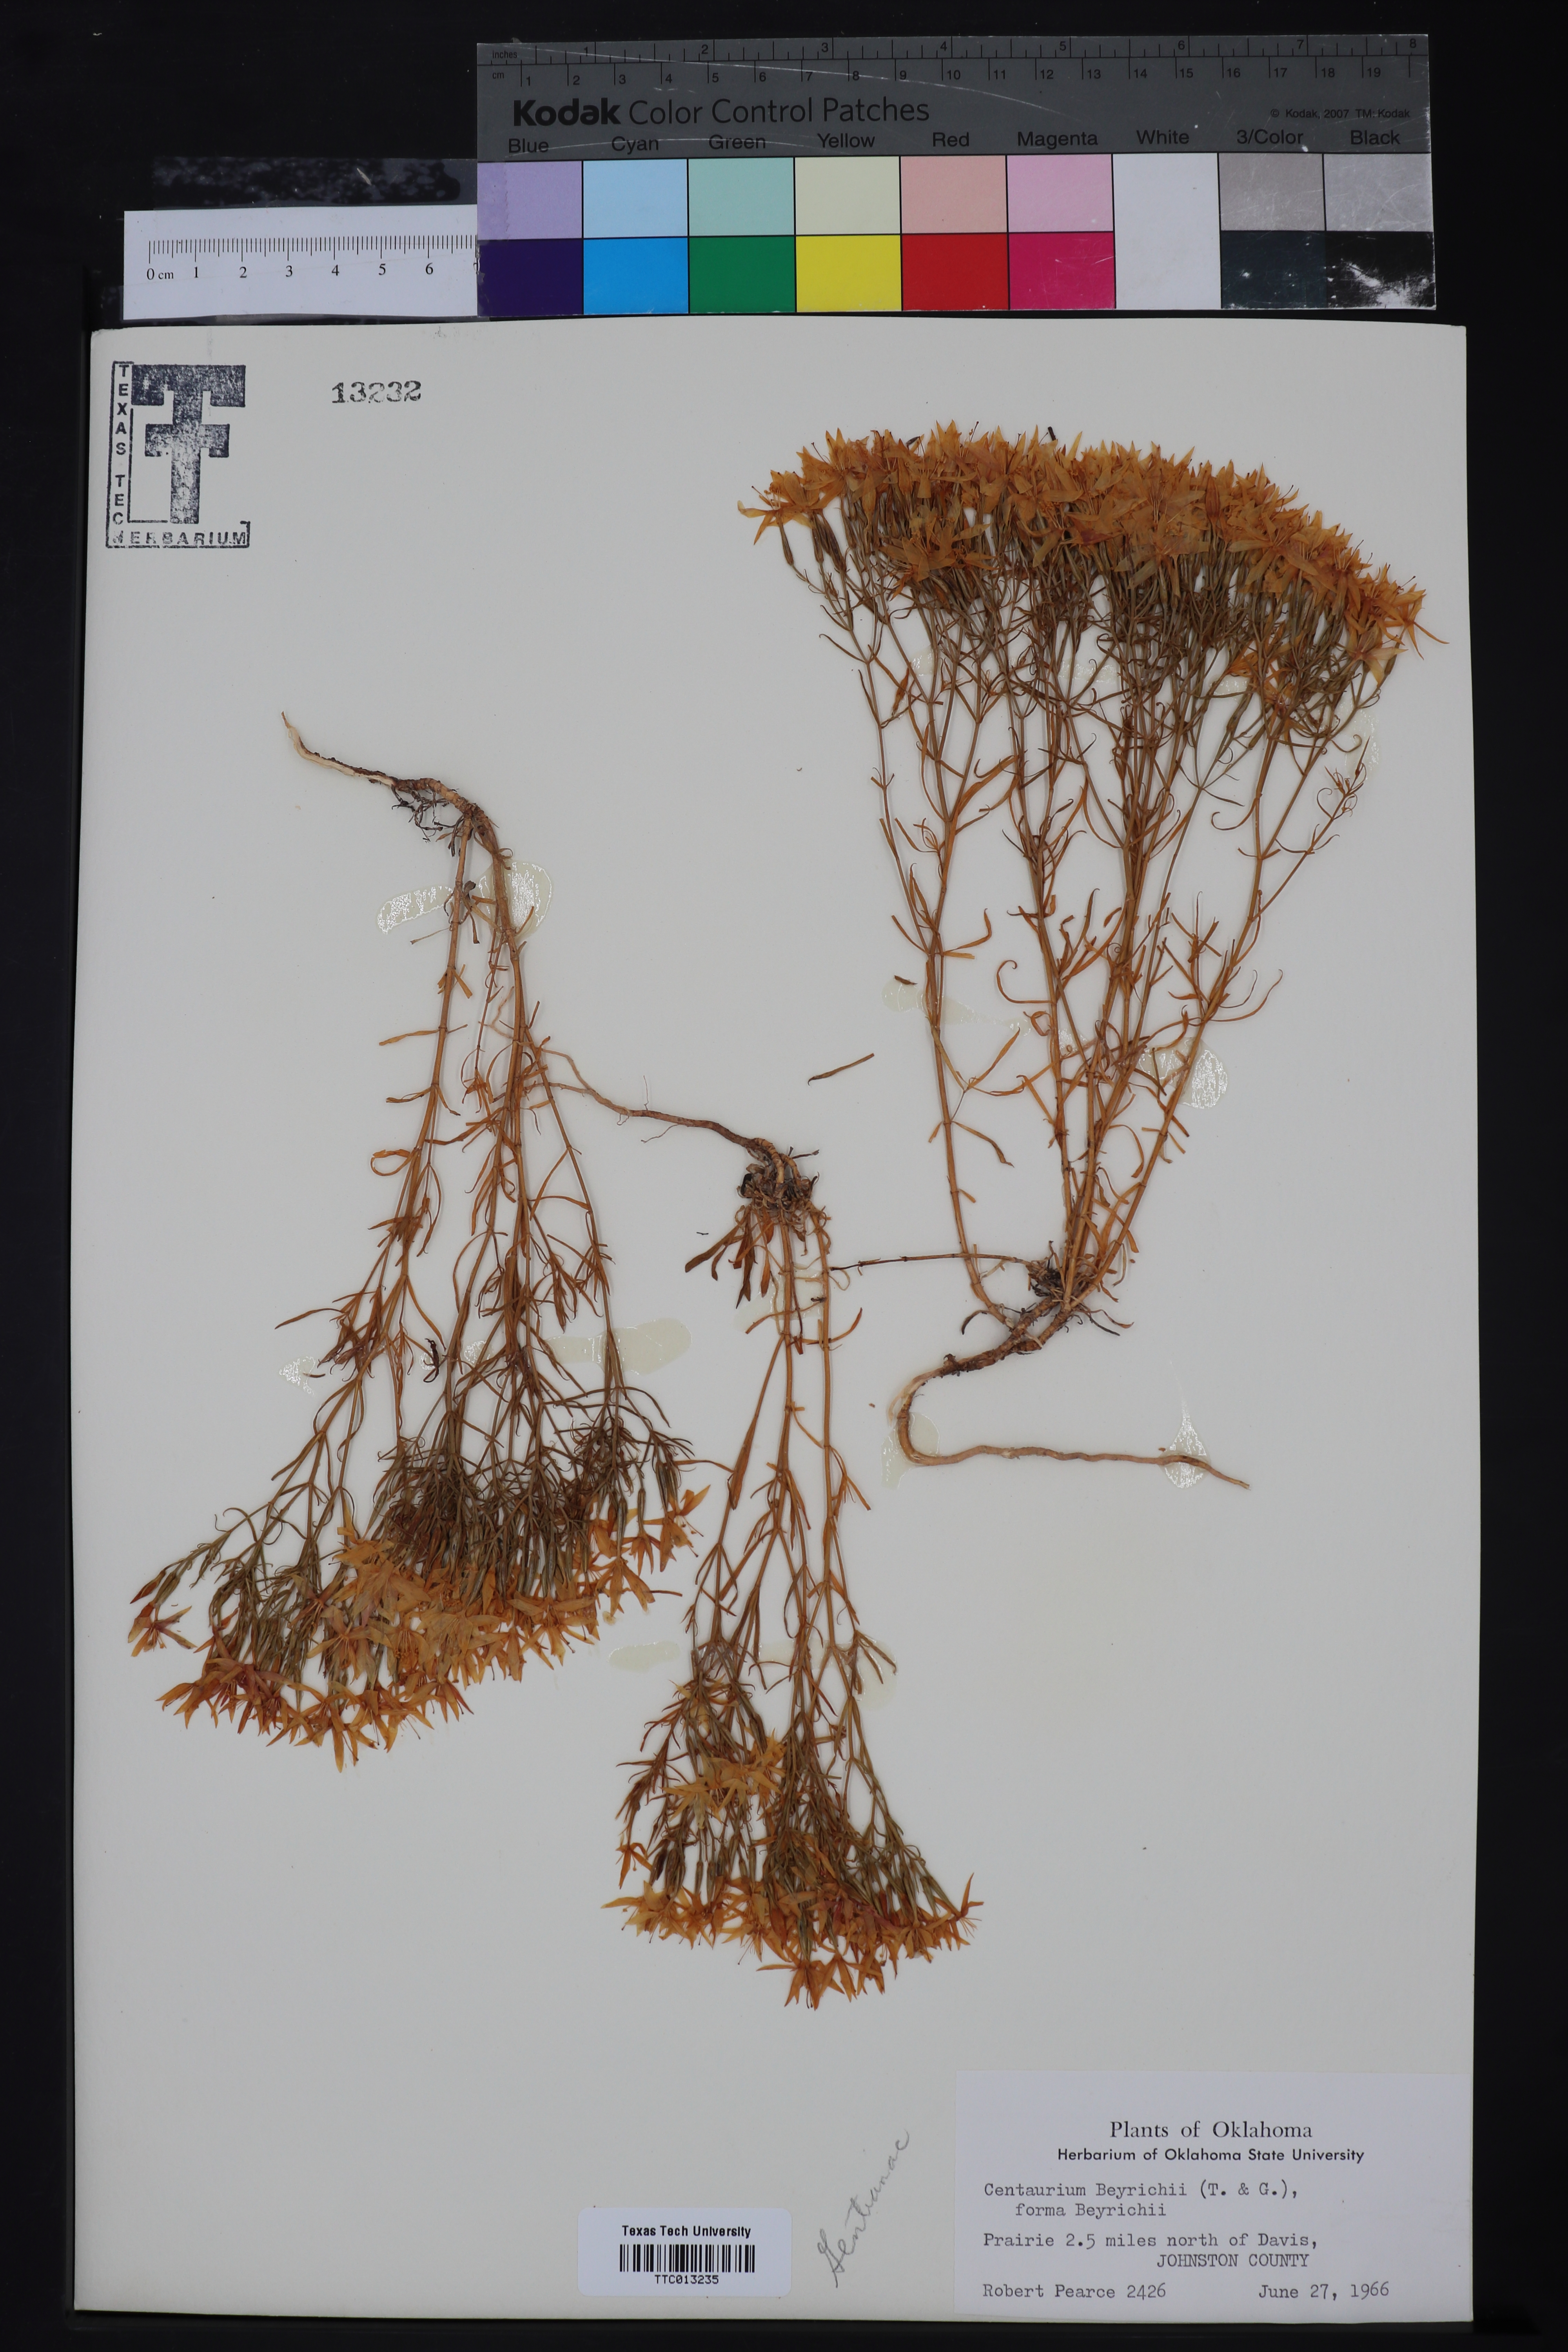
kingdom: Plantae
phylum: Tracheophyta
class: Magnoliopsida
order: Gentianales
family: Gentianaceae
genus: Zeltnera
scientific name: Zeltnera beyrichii
